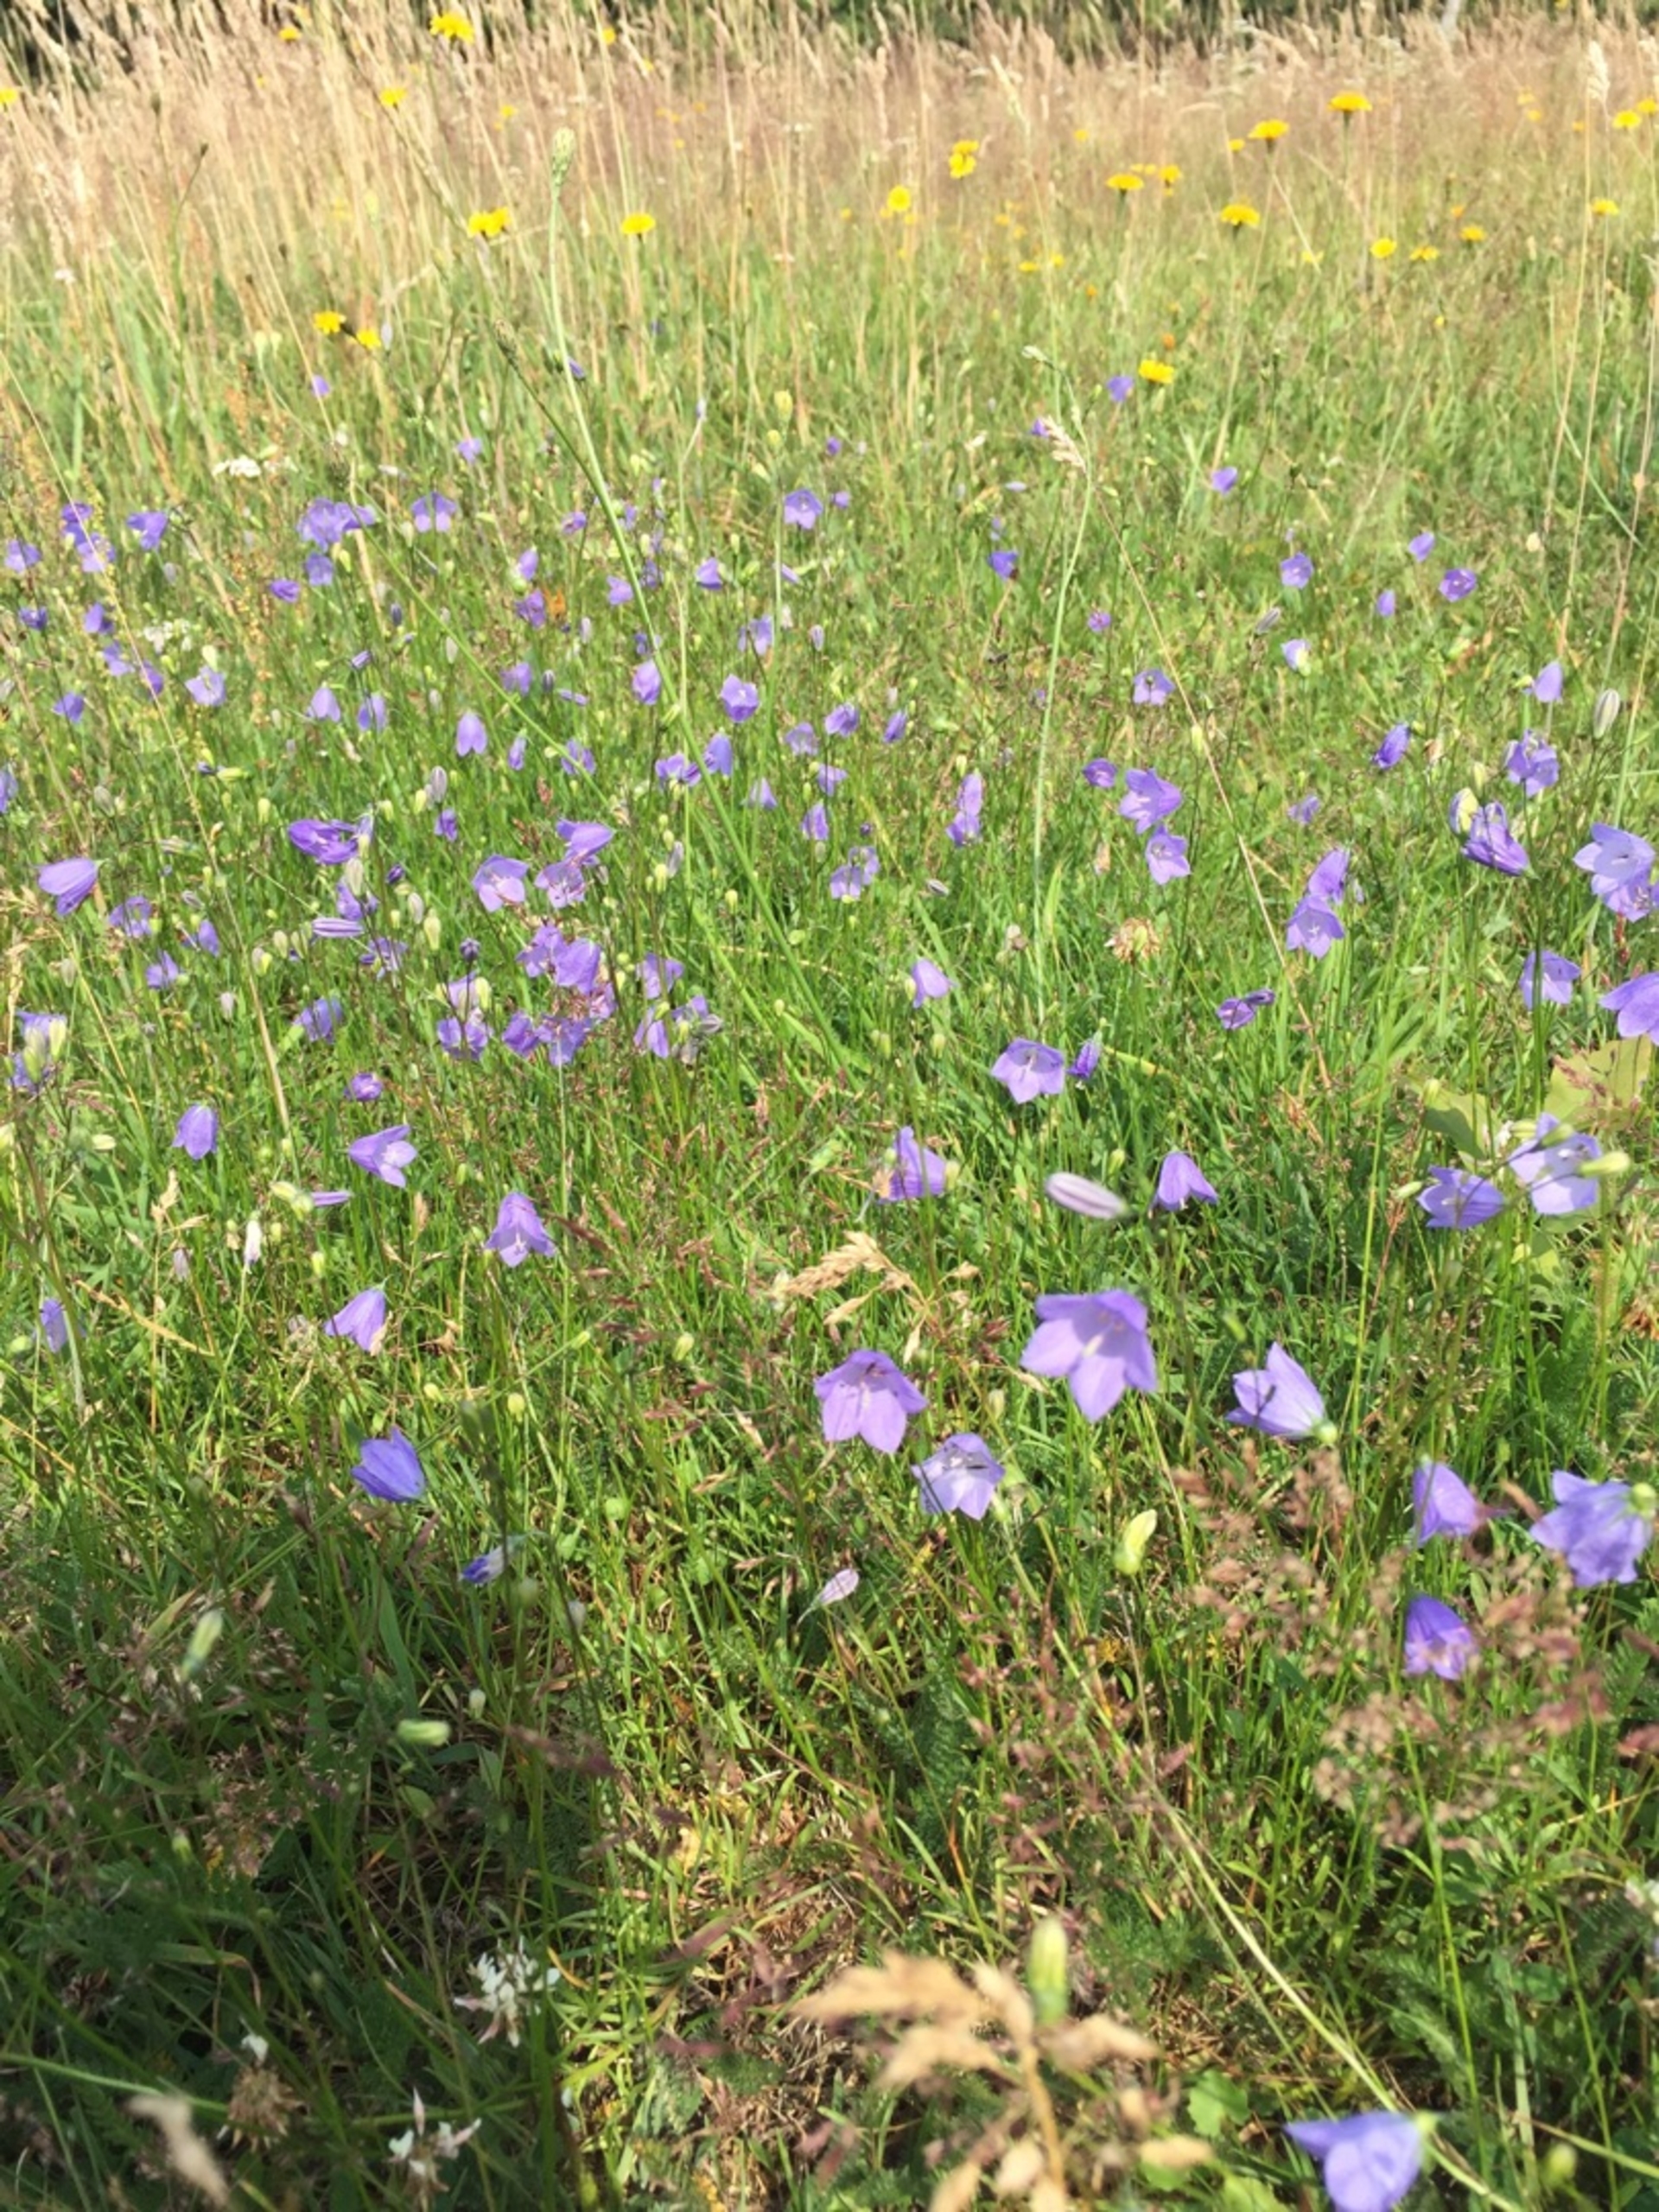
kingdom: Plantae
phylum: Tracheophyta
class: Magnoliopsida
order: Asterales
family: Campanulaceae
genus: Campanula
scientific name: Campanula rotundifolia
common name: Liden klokke
